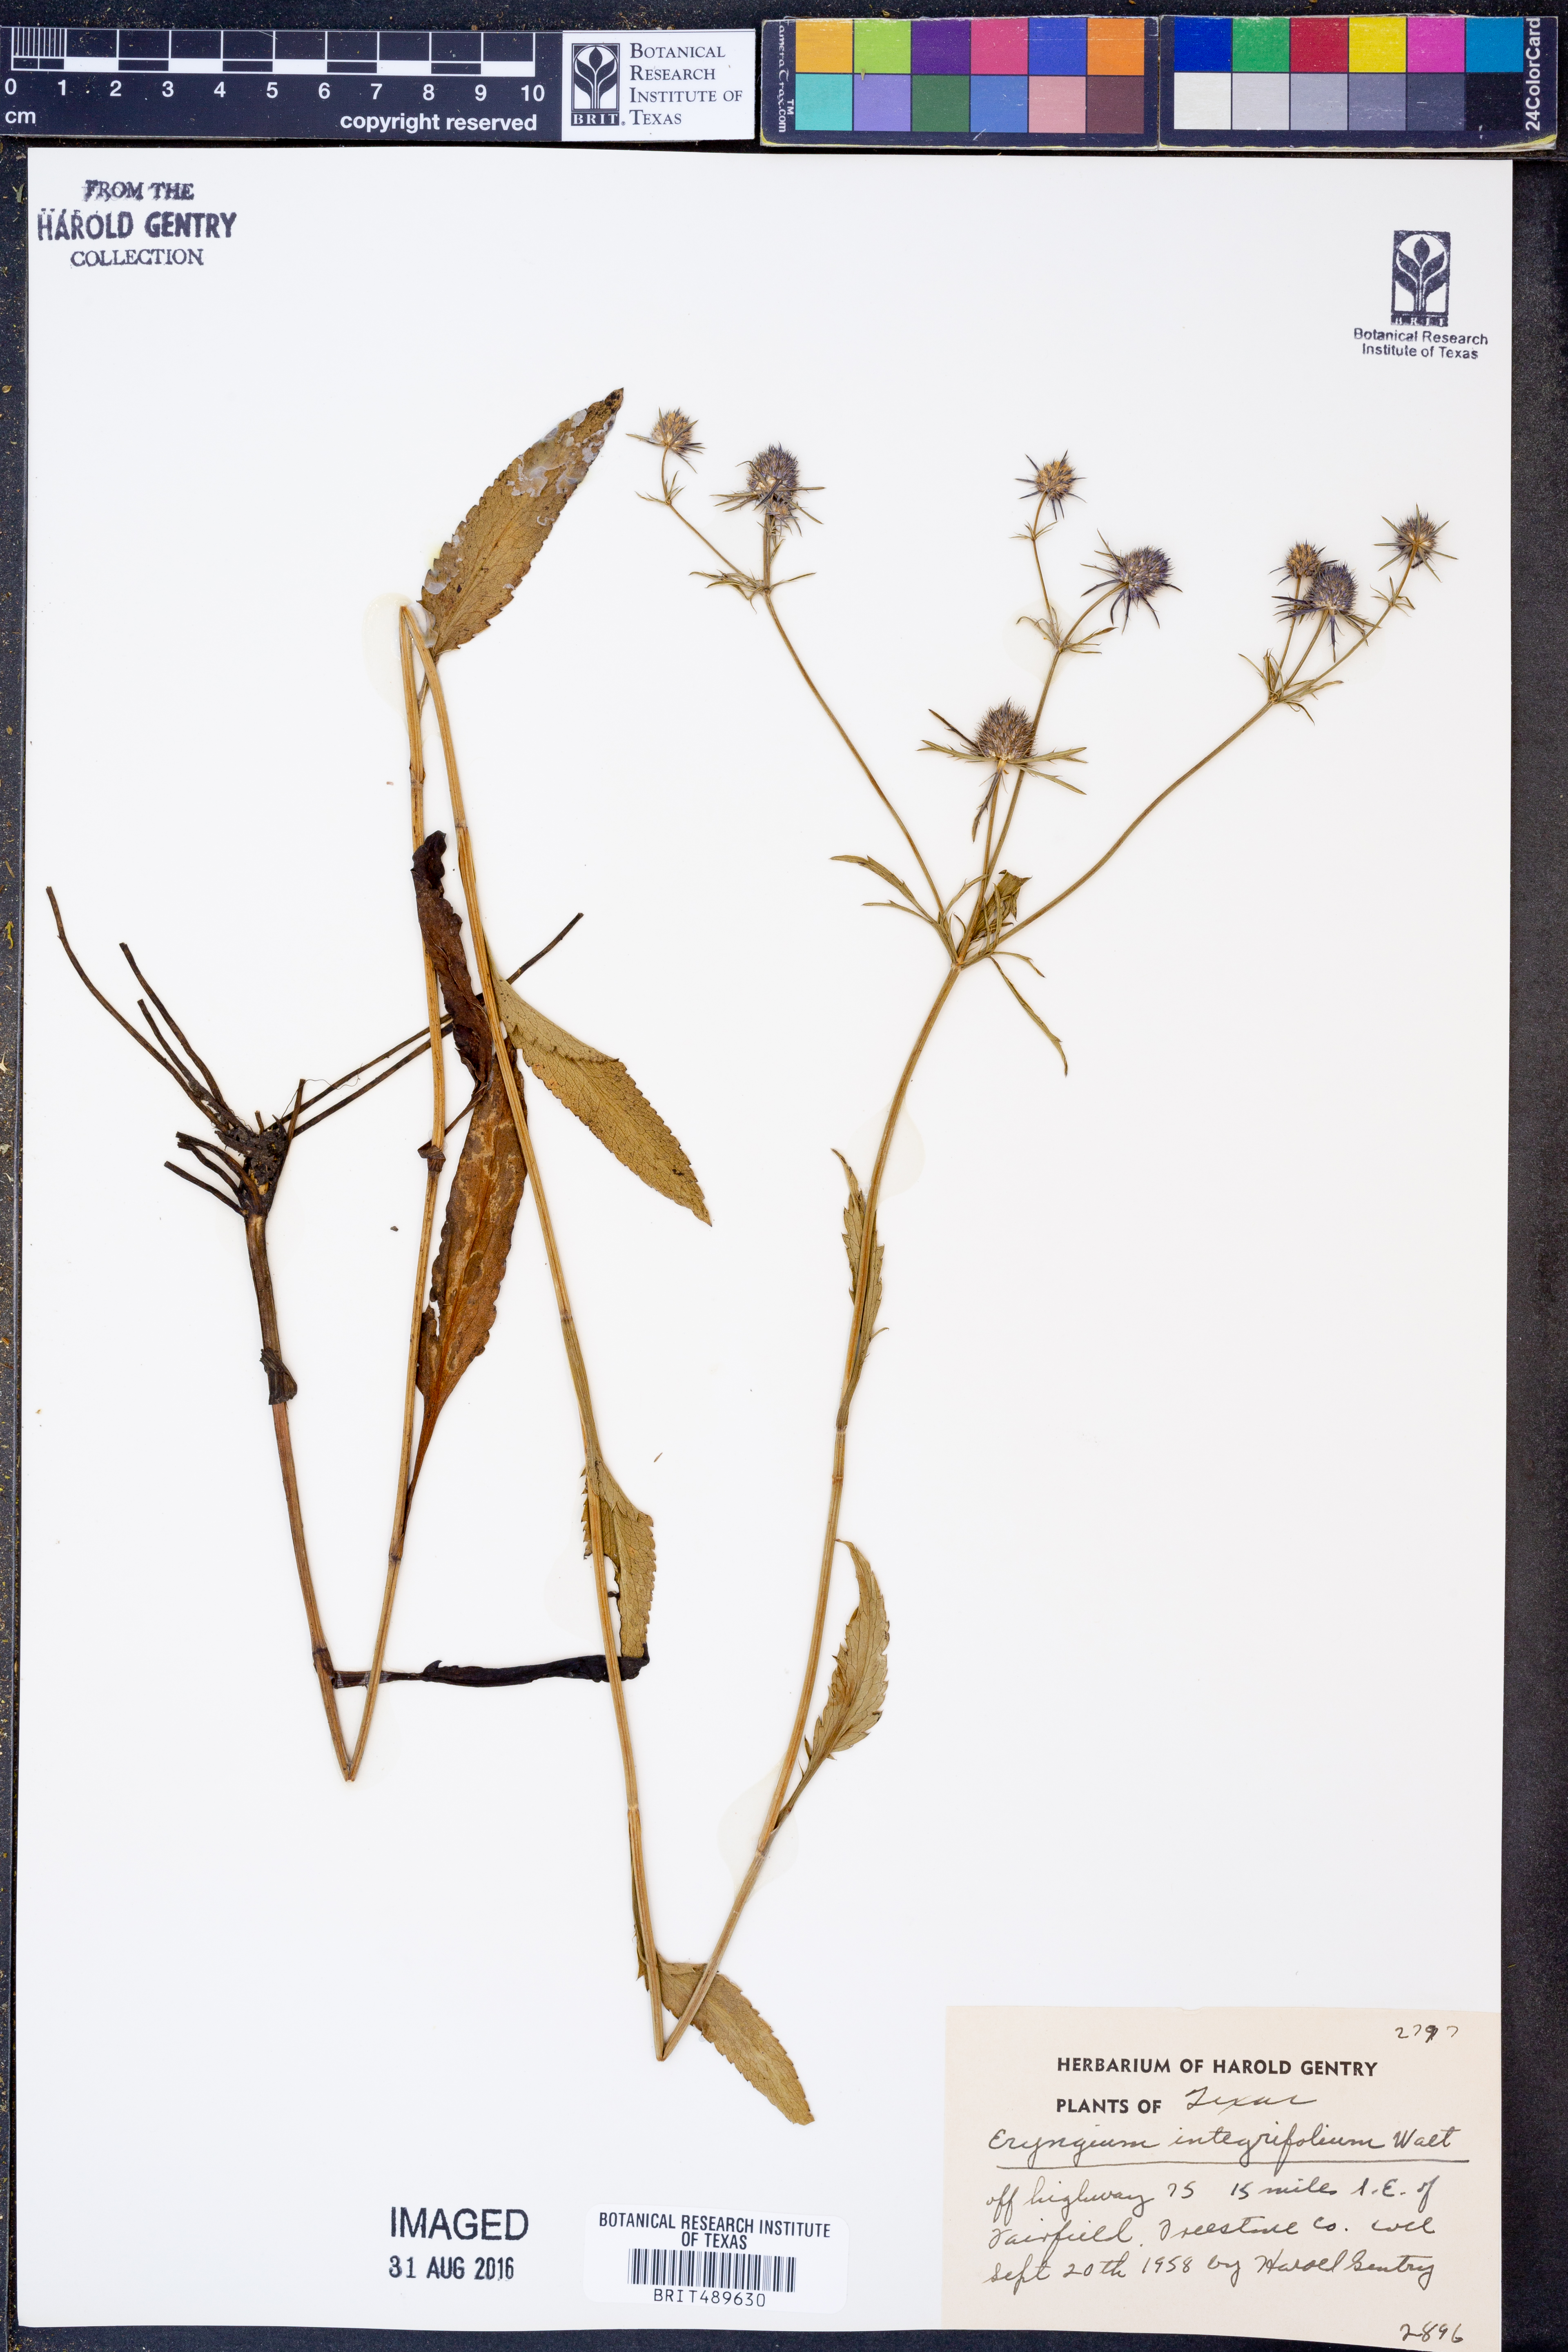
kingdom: Plantae
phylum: Tracheophyta
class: Magnoliopsida
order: Apiales
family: Apiaceae
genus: Eryngium
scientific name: Eryngium integrifolium
